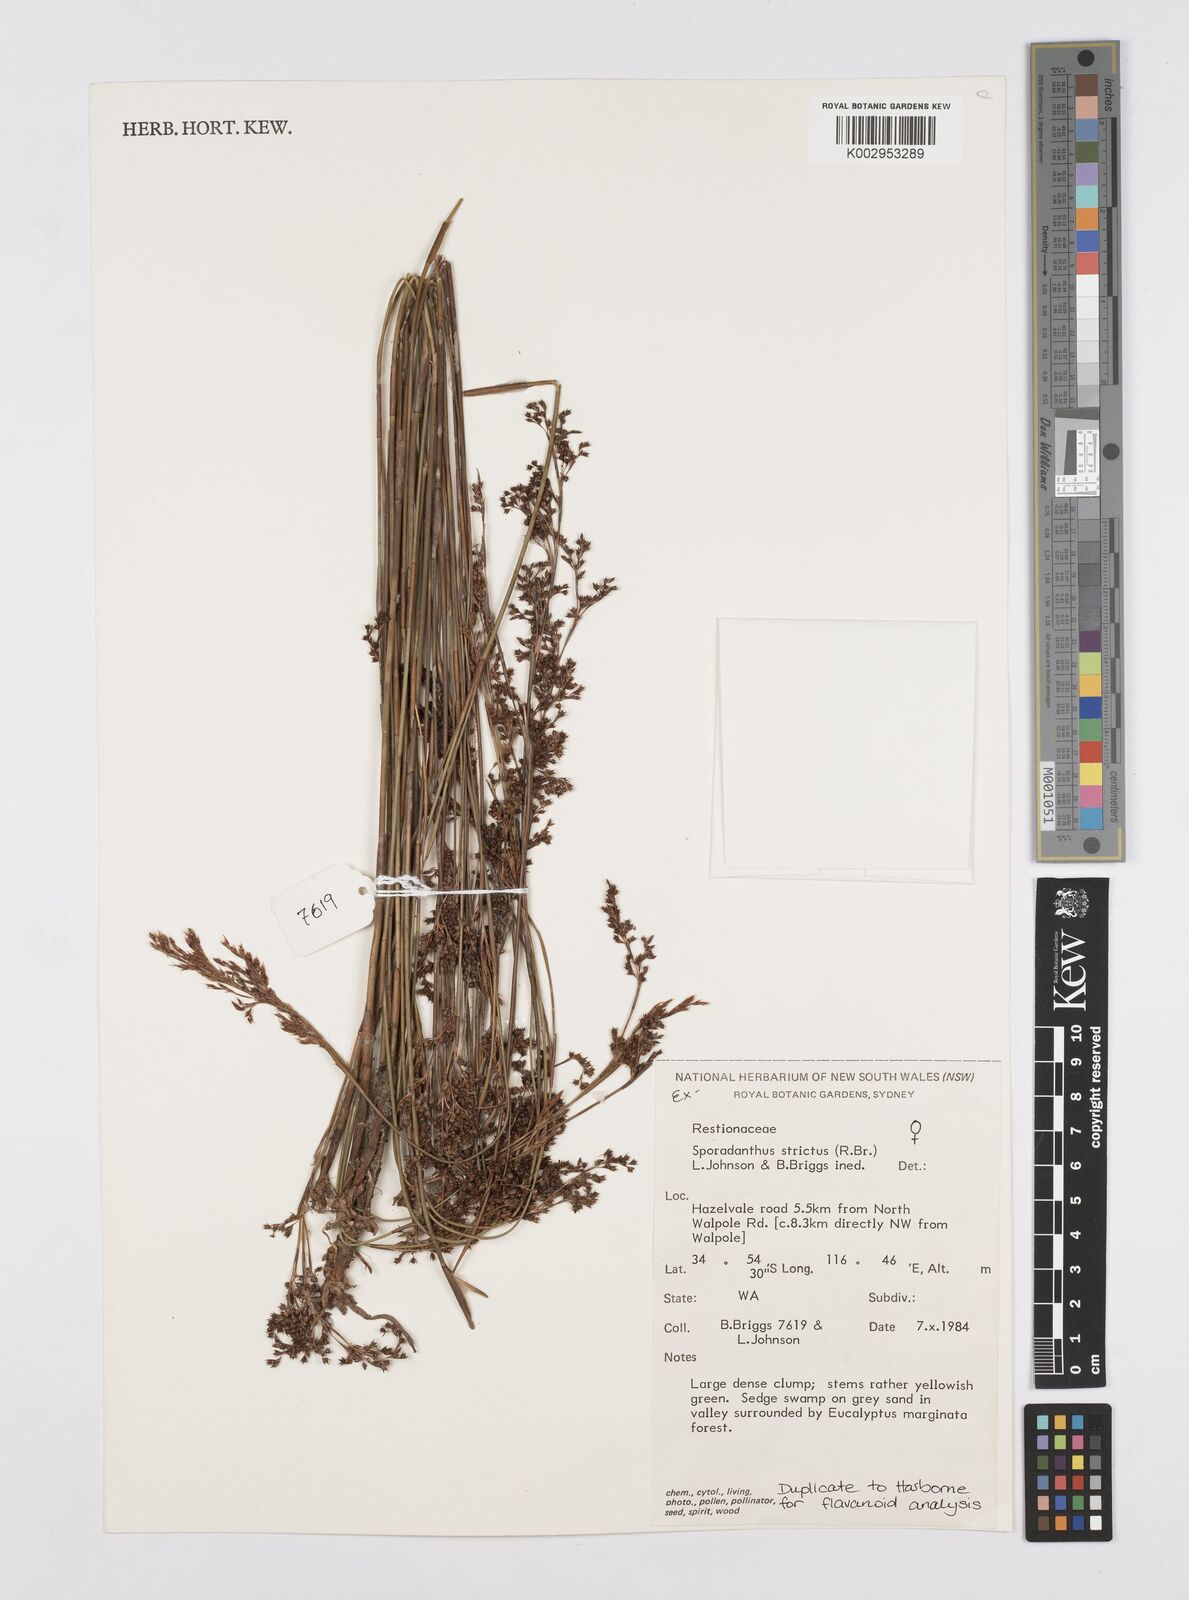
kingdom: Plantae
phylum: Tracheophyta
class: Liliopsida
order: Poales
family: Restionaceae
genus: Sporadanthus
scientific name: Sporadanthus strictus
